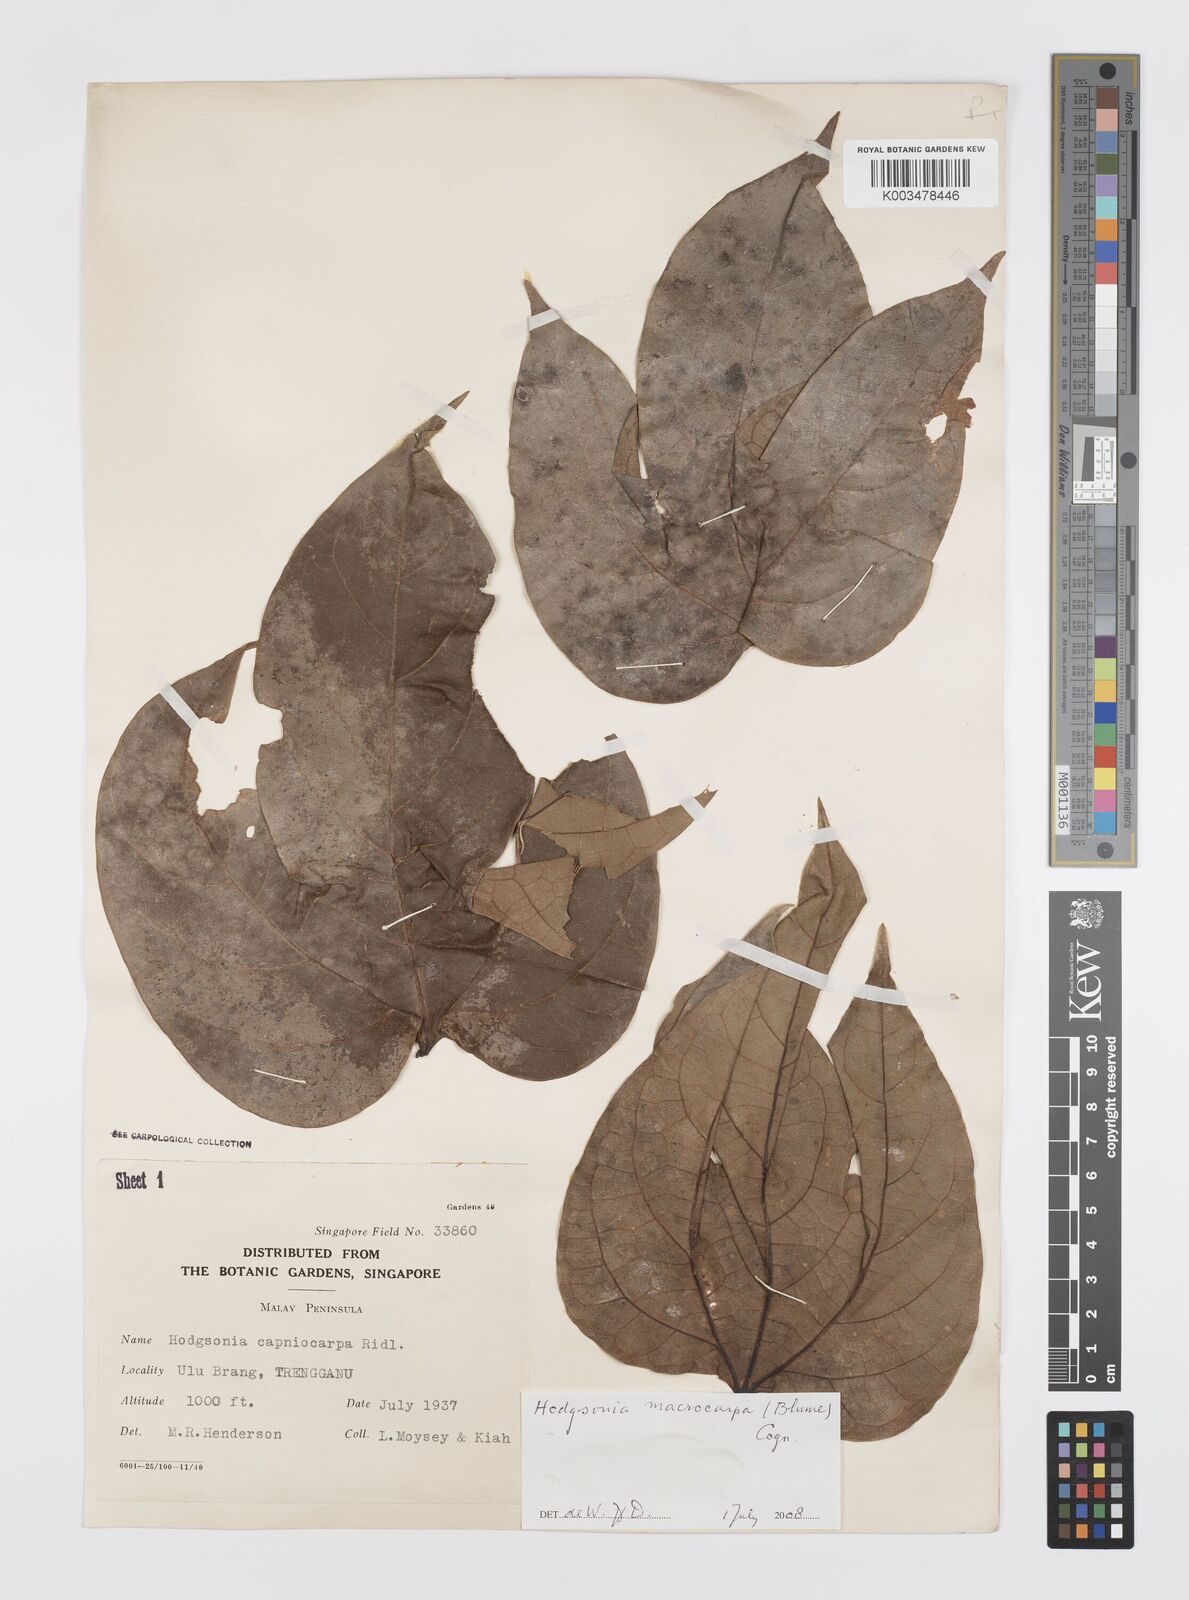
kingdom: Plantae
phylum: Tracheophyta
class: Magnoliopsida
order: Cucurbitales
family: Cucurbitaceae
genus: Hodgsonia
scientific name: Hodgsonia macrocarpa
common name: Chinese lardfruit
